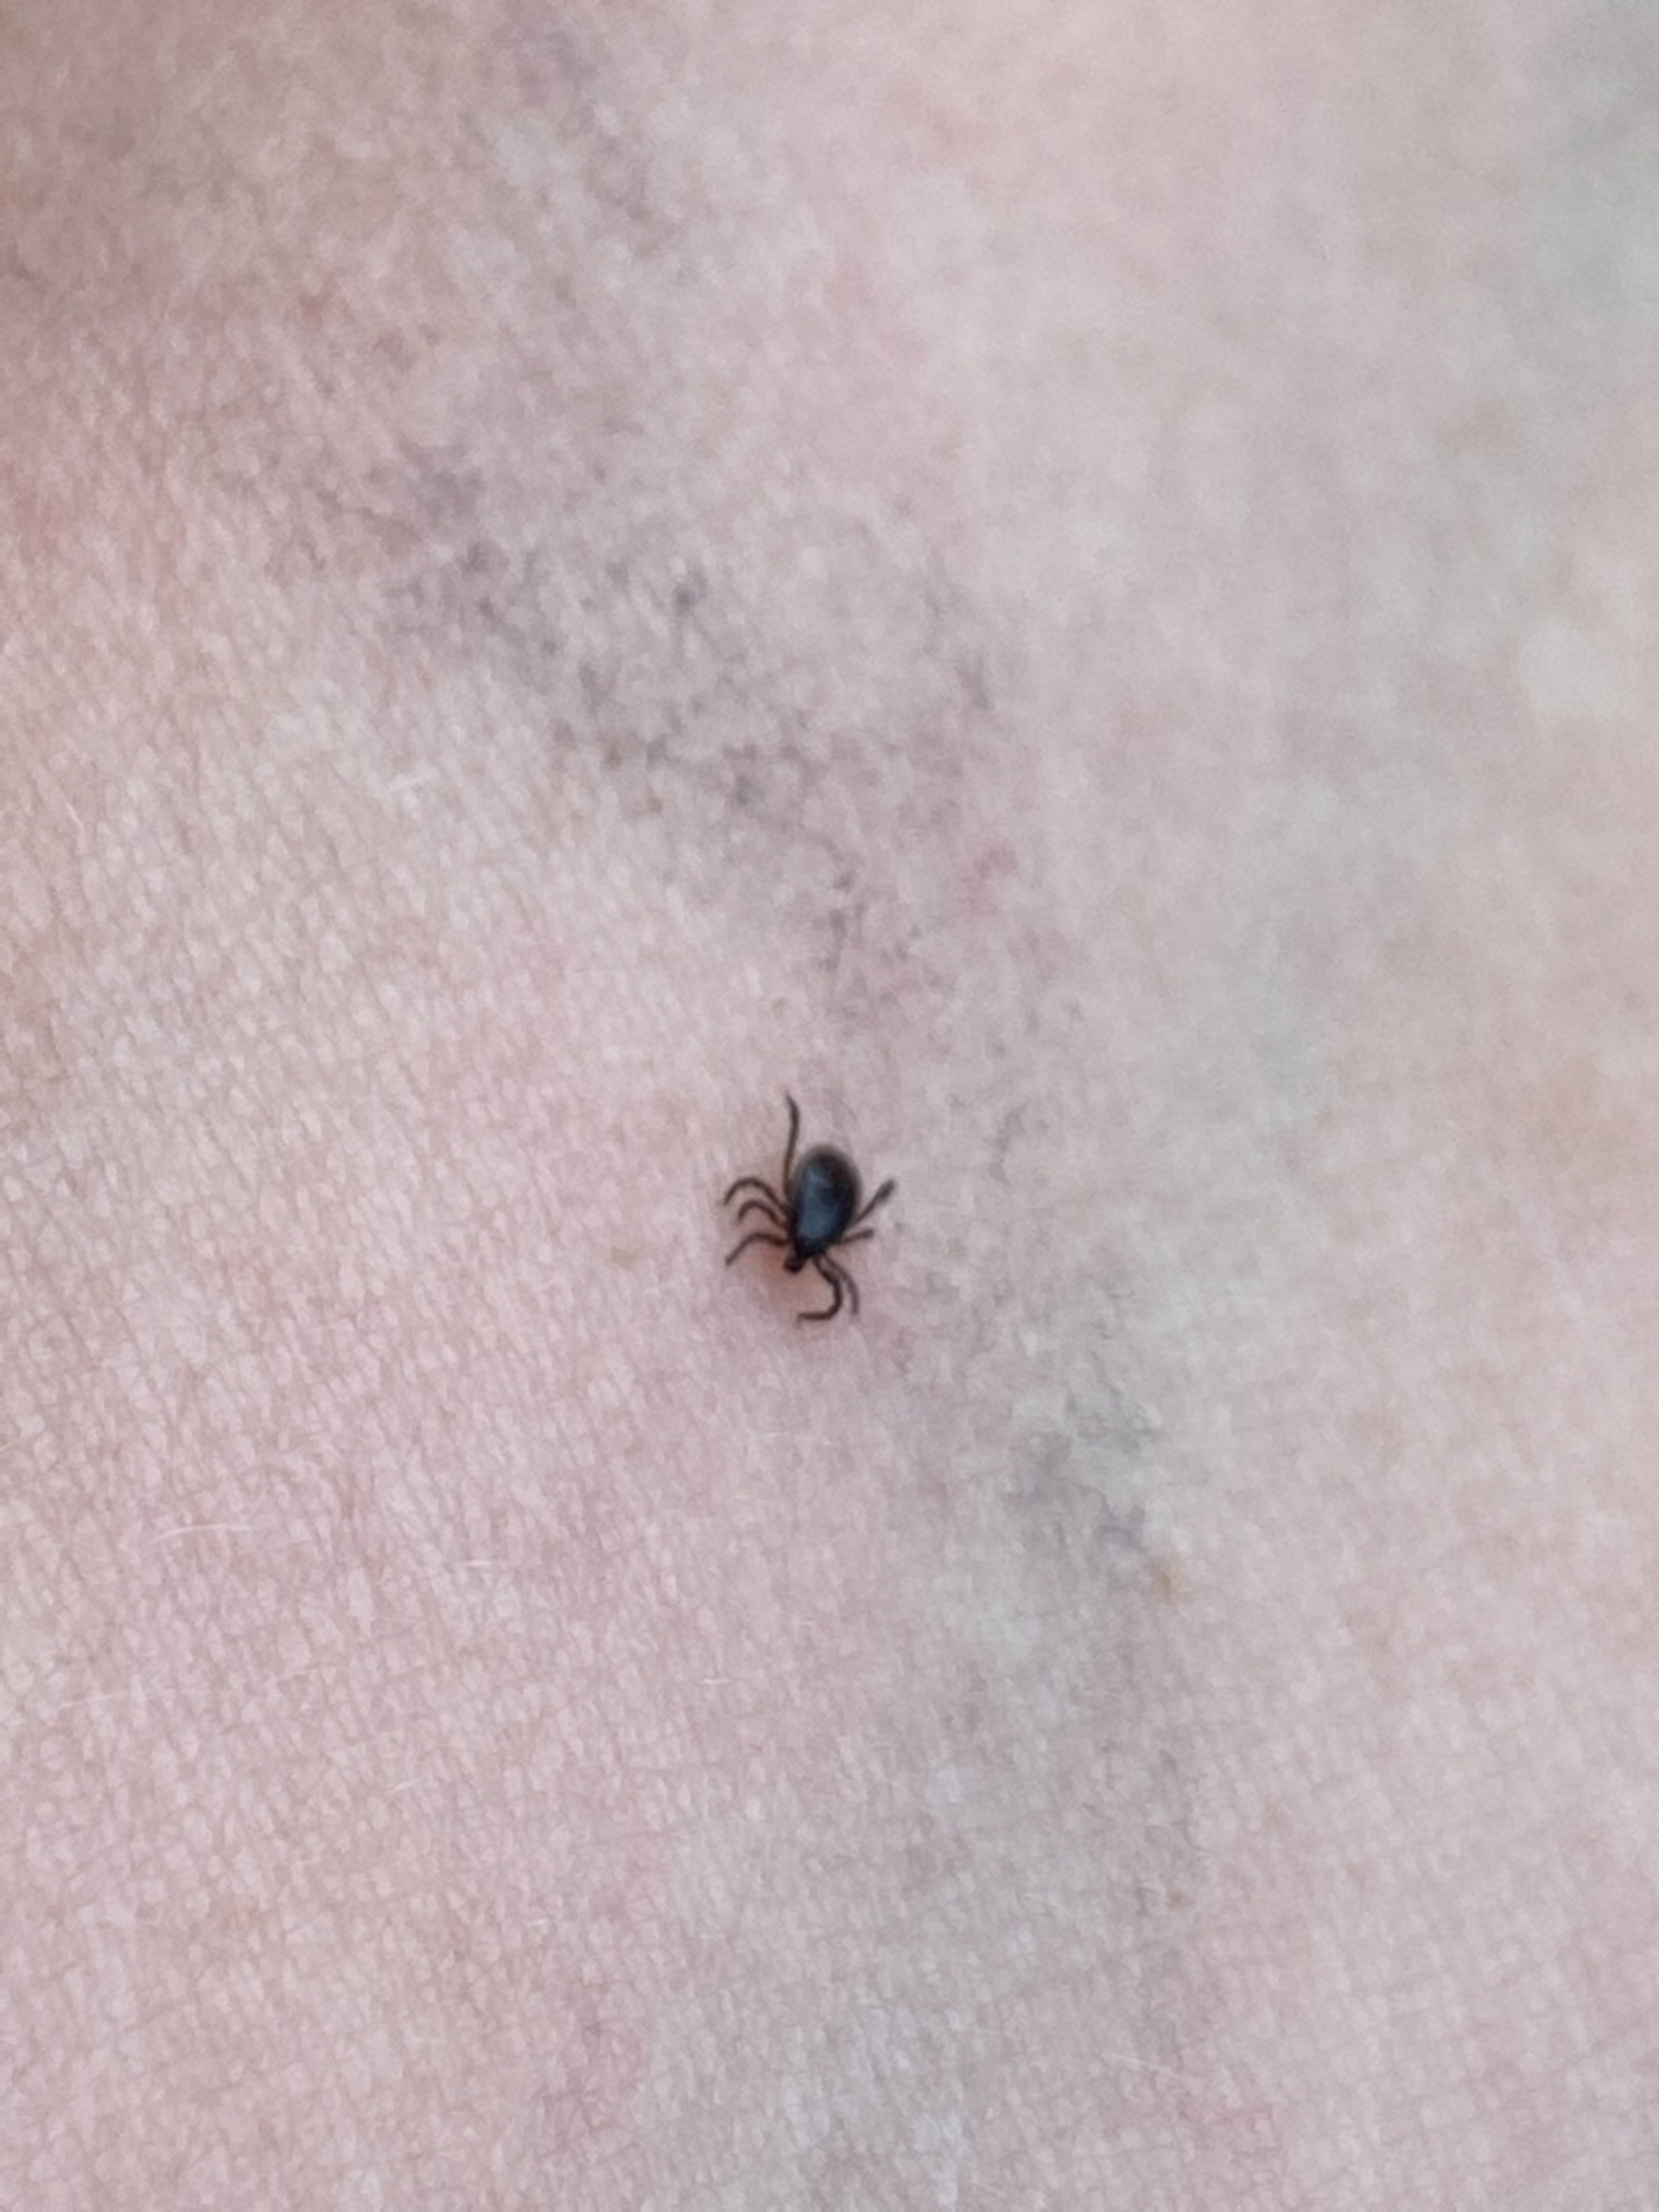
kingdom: Animalia
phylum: Arthropoda
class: Arachnida
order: Ixodida
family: Ixodidae
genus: Ixodes
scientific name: Ixodes ricinus
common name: Skovflåt
